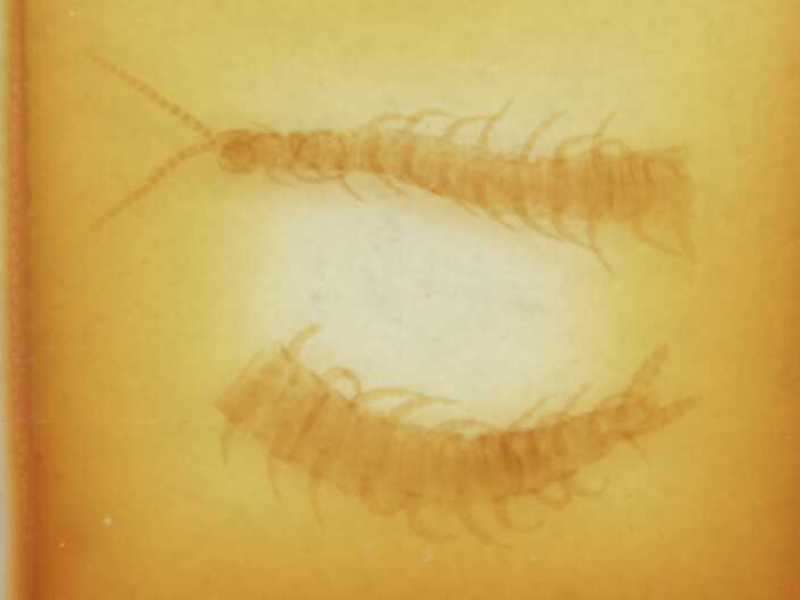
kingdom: Animalia
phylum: Arthropoda
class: Chilopoda
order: Geophilomorpha
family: Linotaeniidae
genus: Strigamia
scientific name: Strigamia engadina
